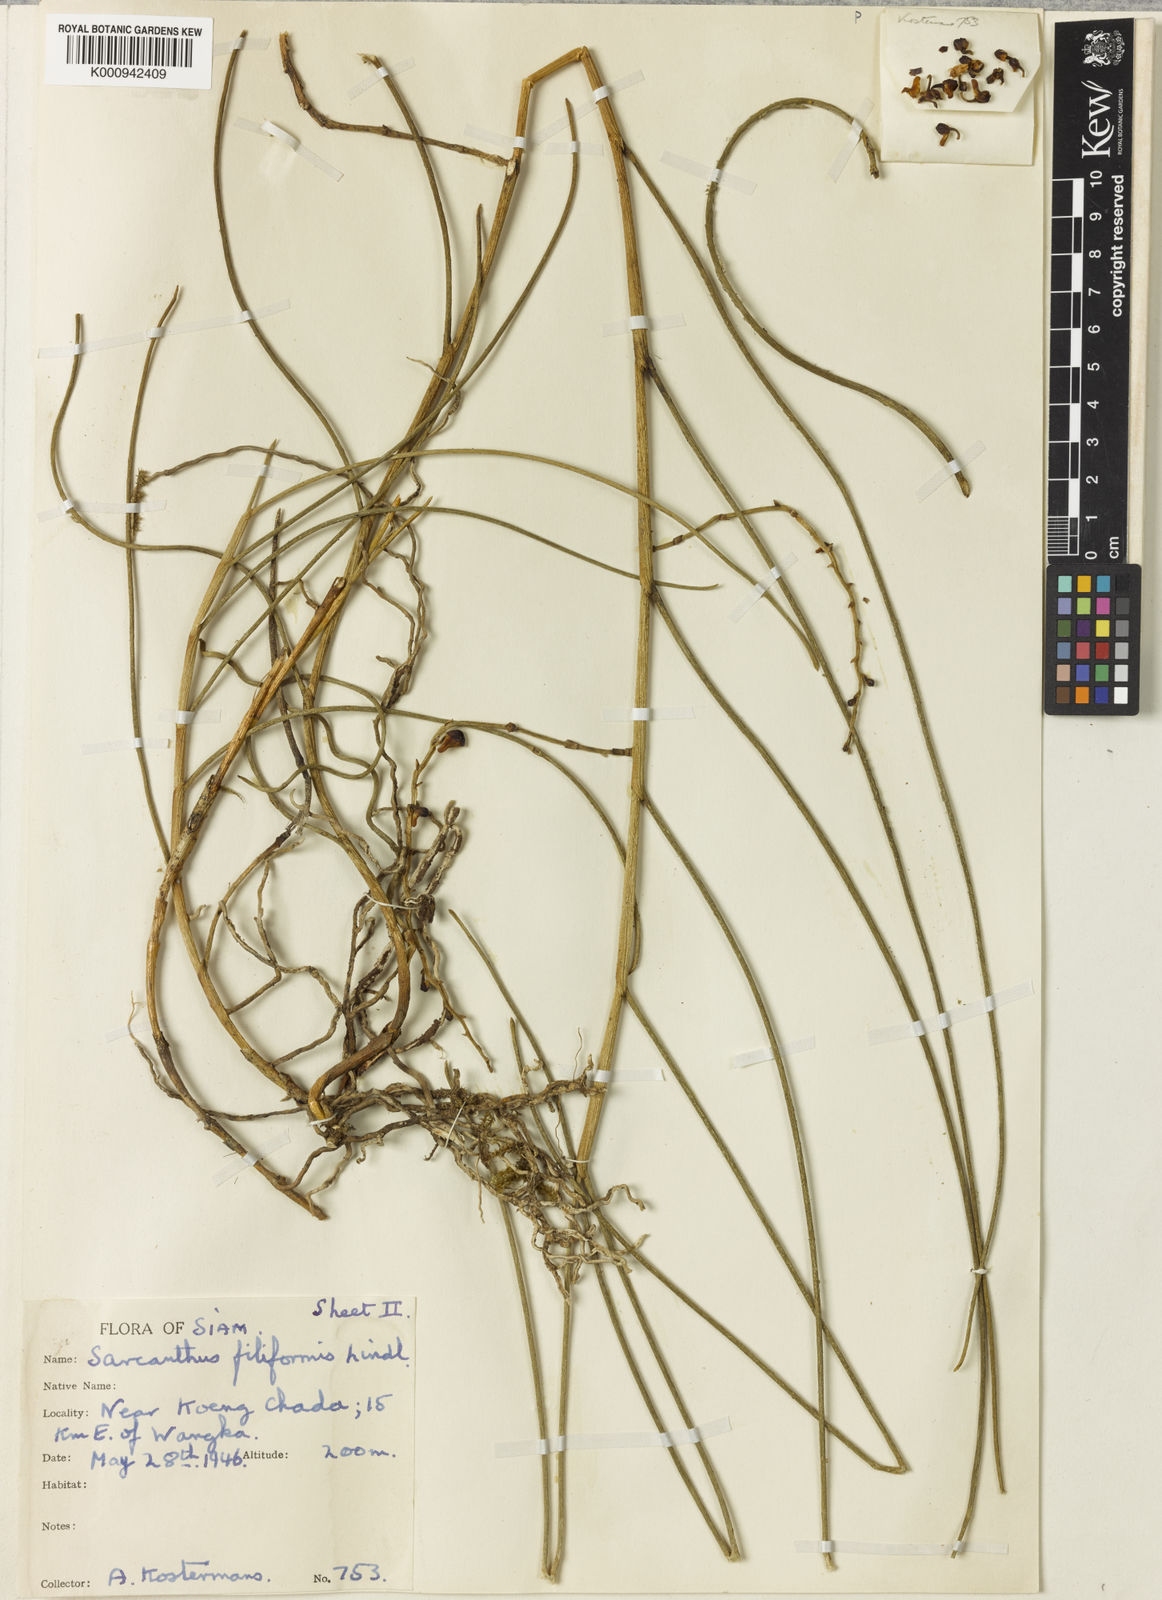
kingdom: Plantae
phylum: Tracheophyta
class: Liliopsida
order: Asparagales
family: Orchidaceae
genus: Cleisostoma
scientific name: Cleisostoma complicatum
